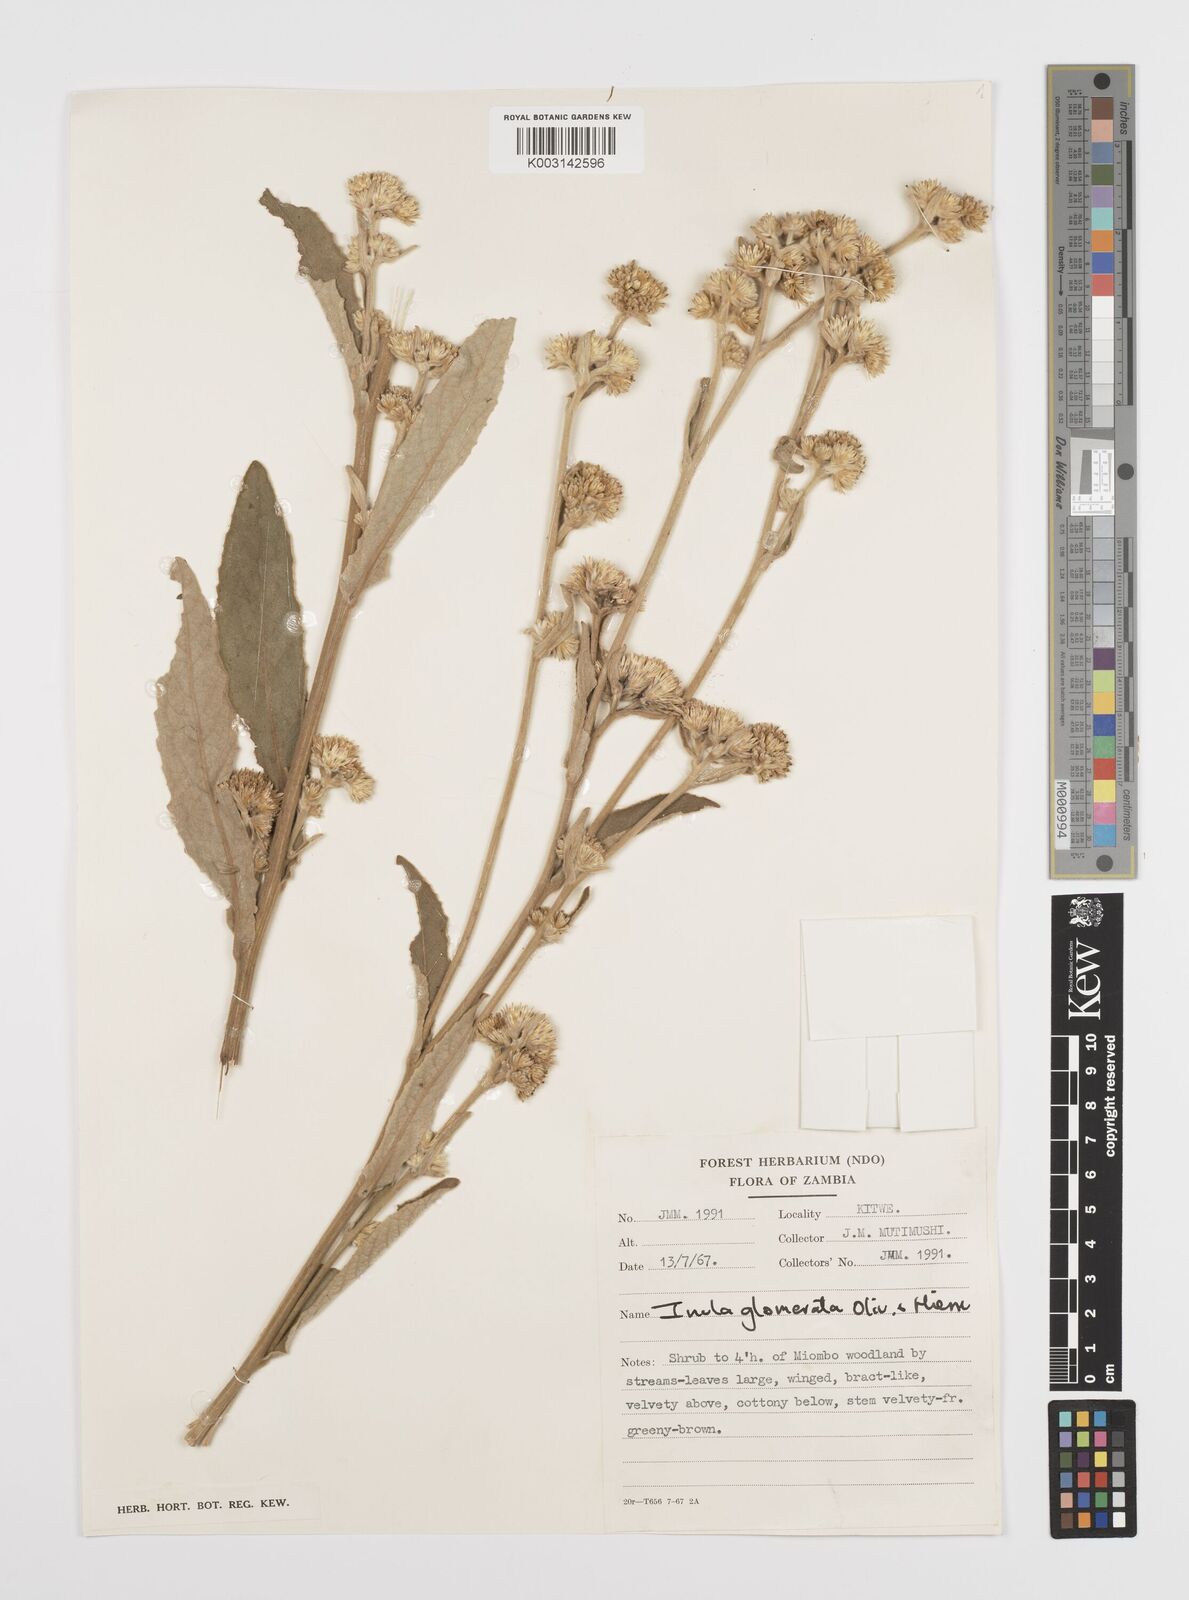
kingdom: Plantae
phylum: Tracheophyta
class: Magnoliopsida
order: Asterales
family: Asteraceae
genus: Inula
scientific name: Inula glomerata
